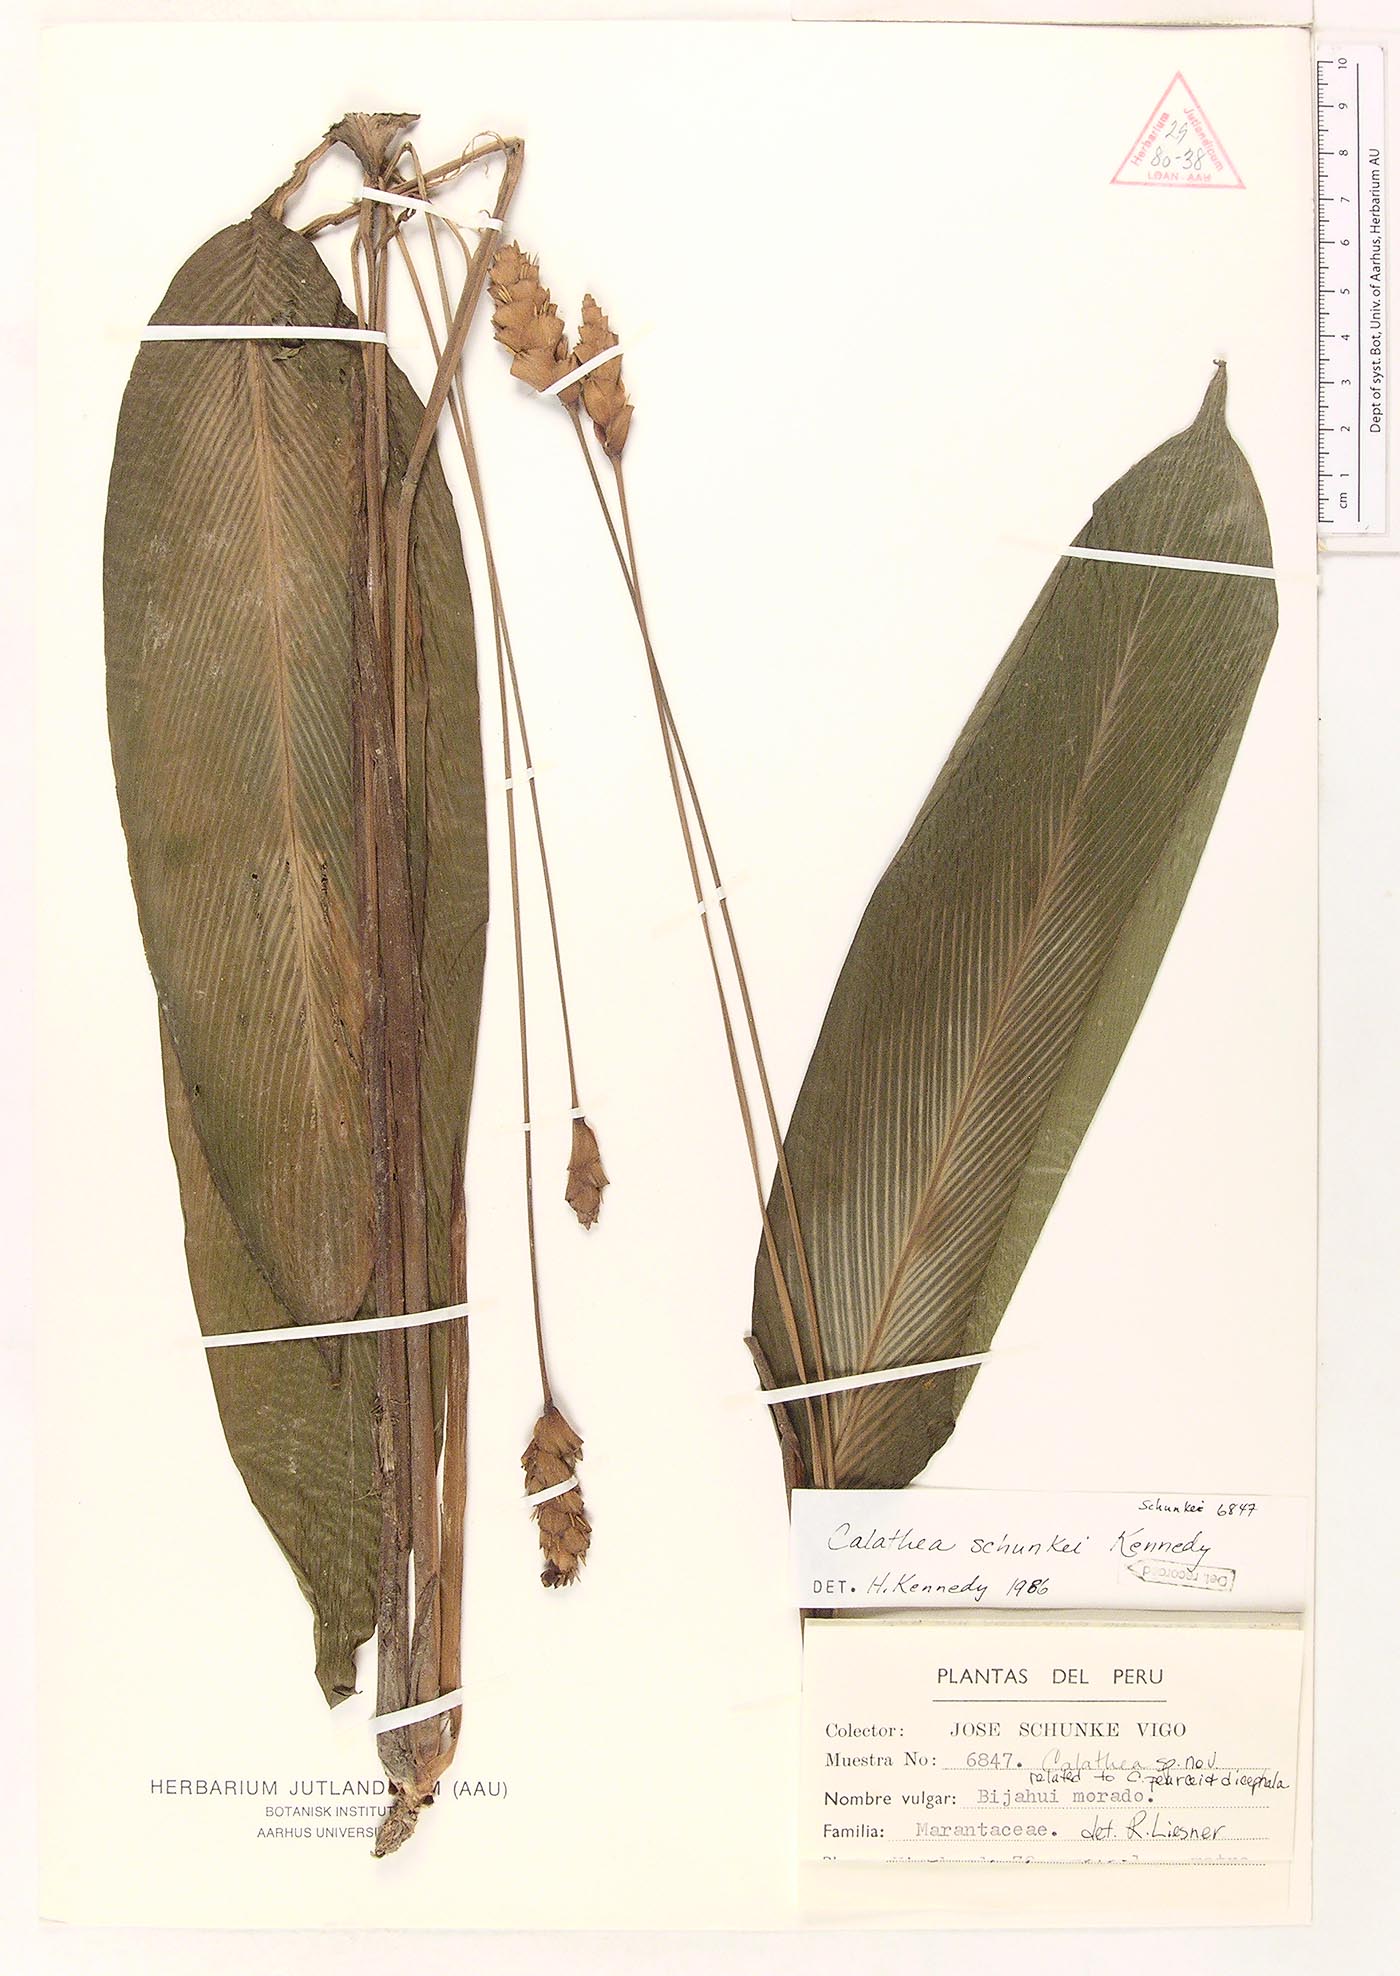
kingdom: Plantae
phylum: Tracheophyta
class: Liliopsida
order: Zingiberales
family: Marantaceae
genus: Goeppertia
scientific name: Goeppertia schunkei
